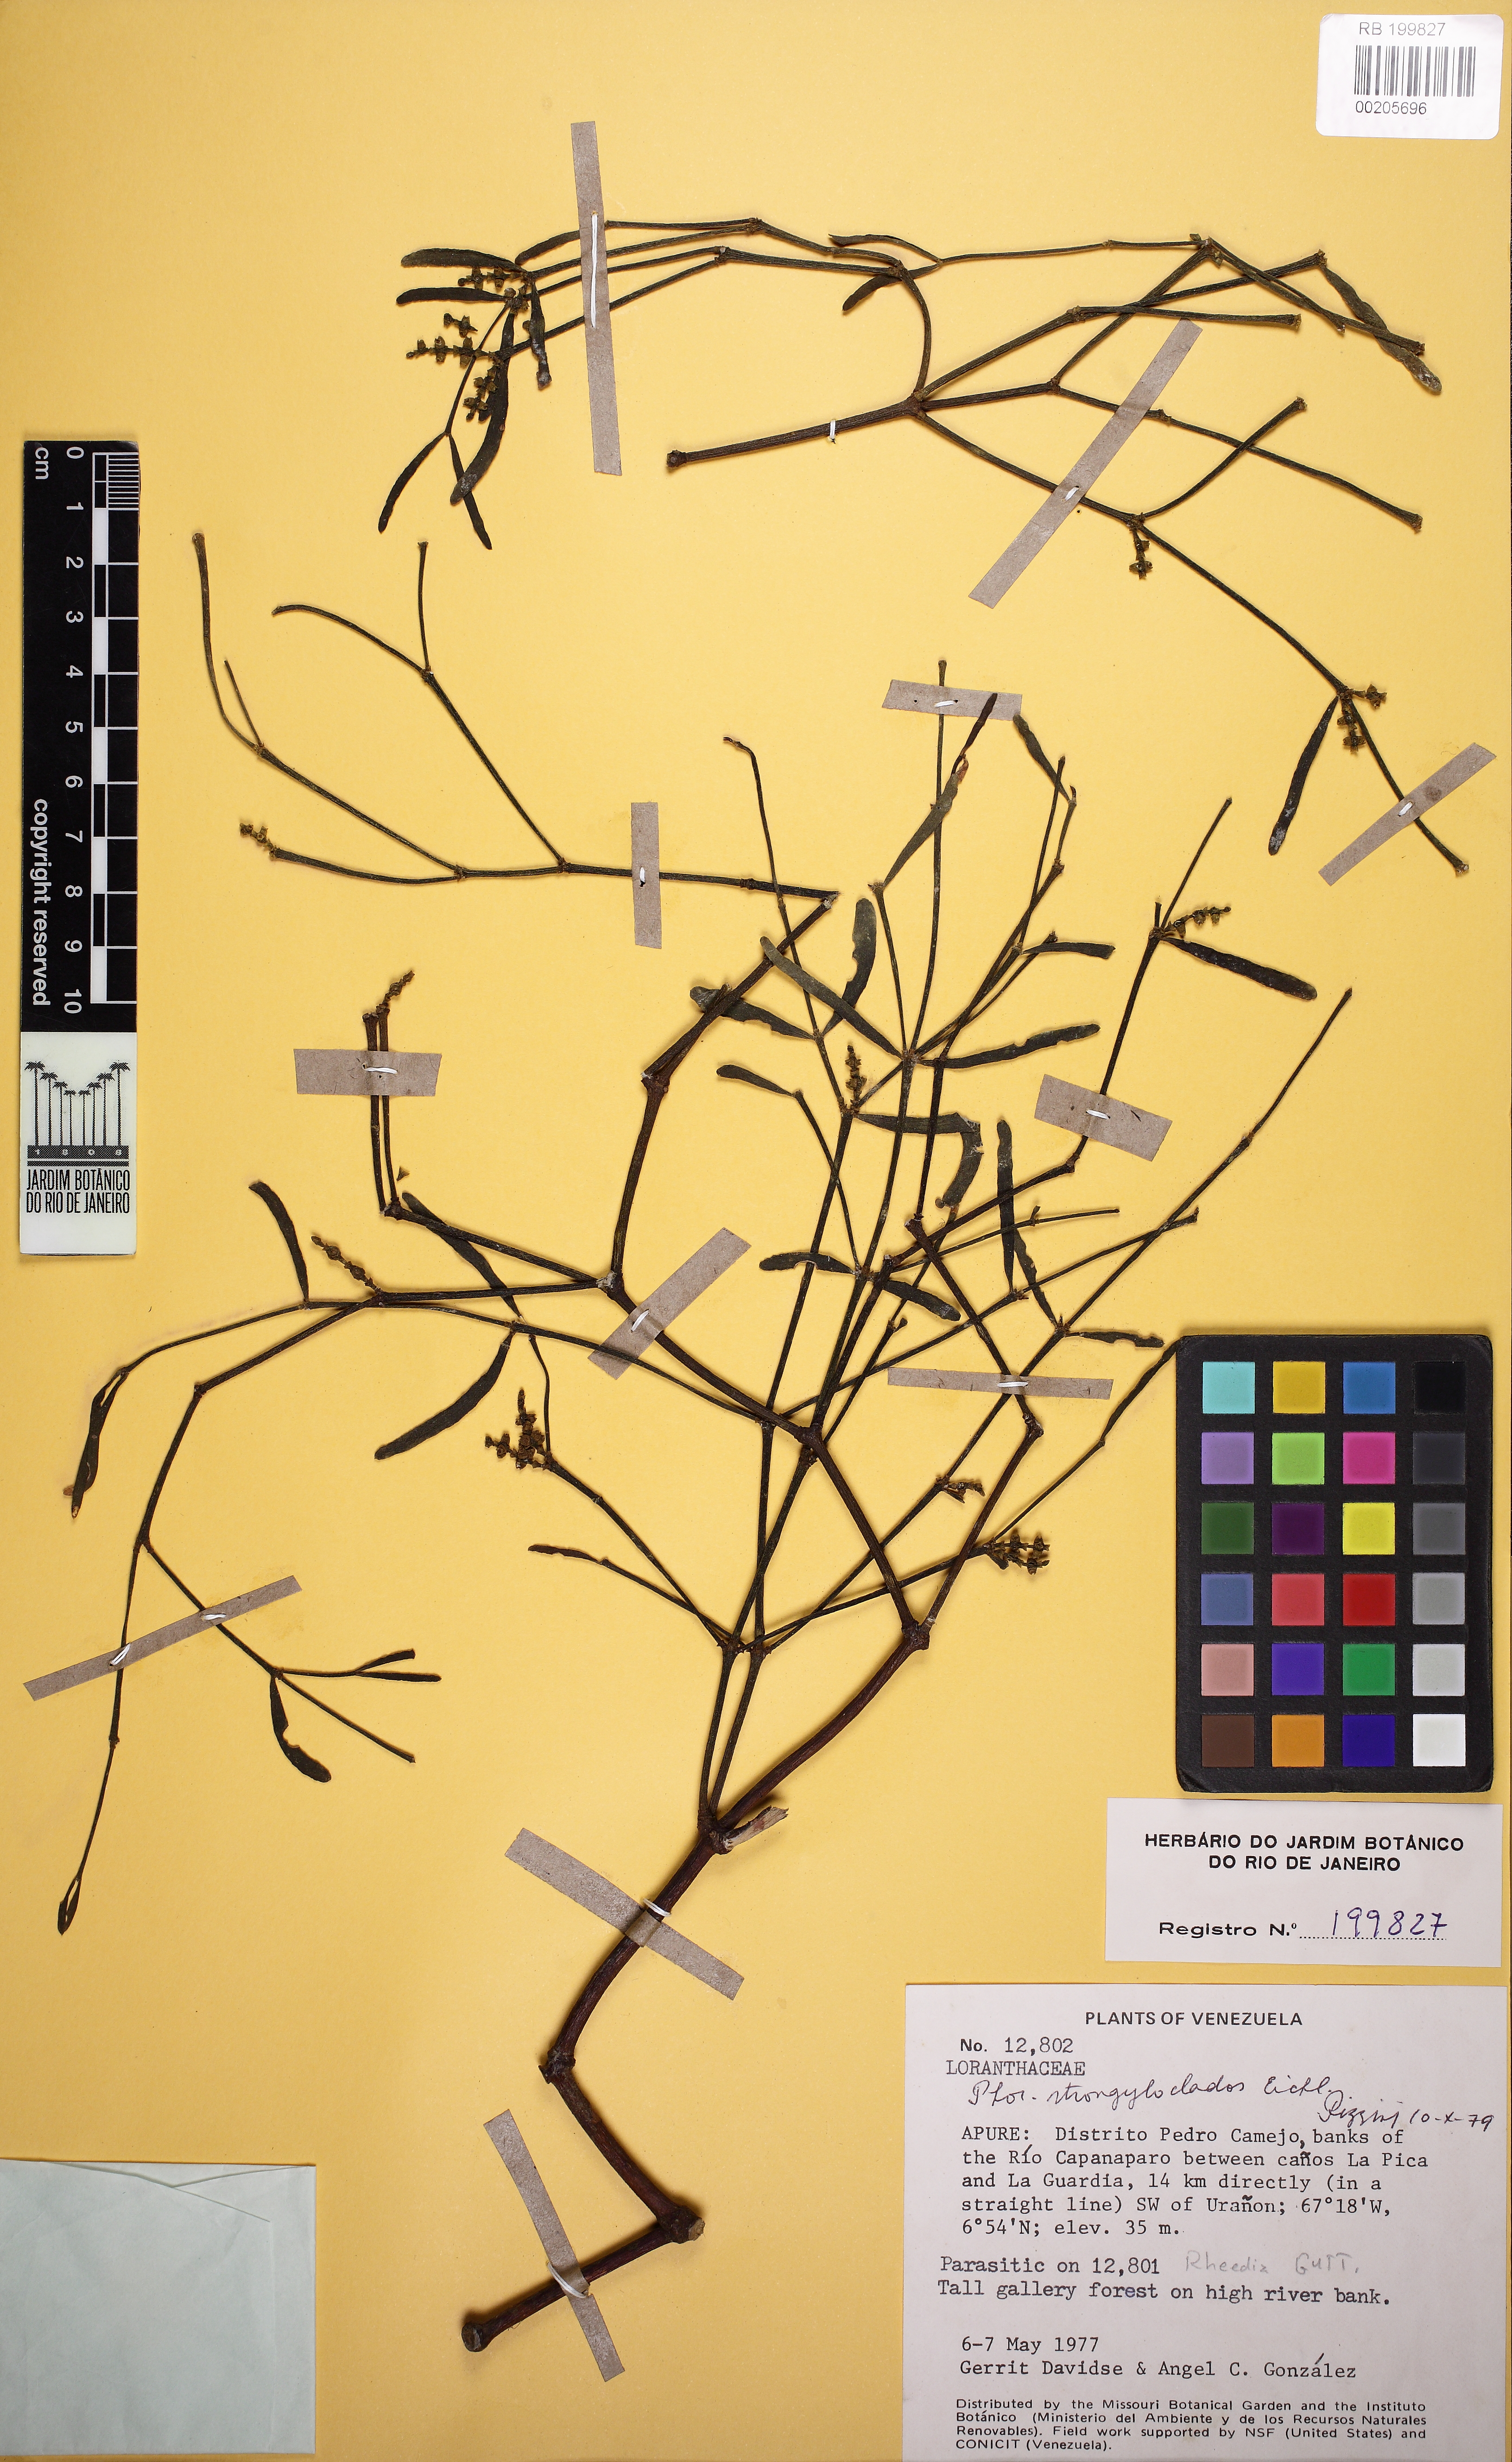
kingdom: Plantae
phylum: Tracheophyta
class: Magnoliopsida
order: Santalales
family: Viscaceae
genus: Phoradendron
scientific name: Phoradendron strongyloclados
